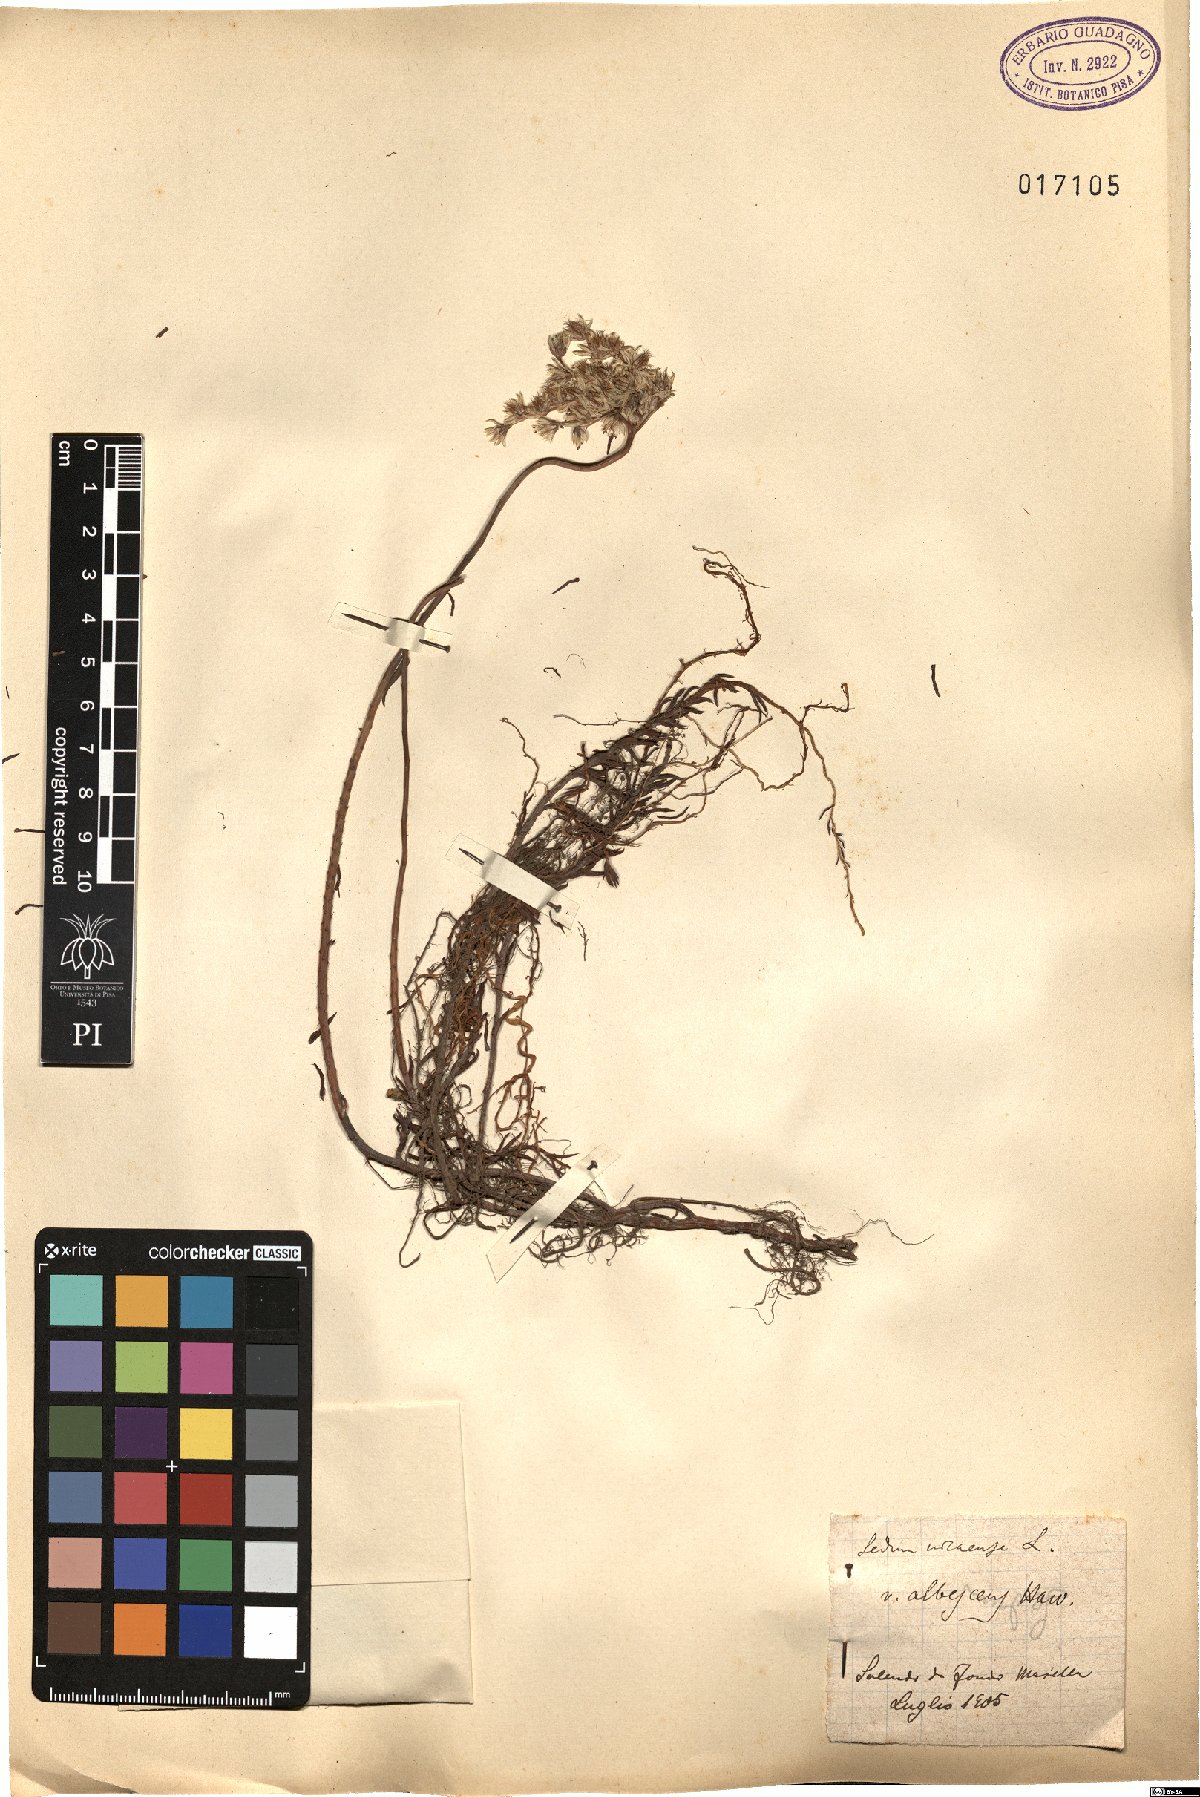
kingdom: Plantae
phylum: Tracheophyta
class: Magnoliopsida
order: Saxifragales
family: Crassulaceae
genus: Petrosedum
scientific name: Petrosedum luteolum
